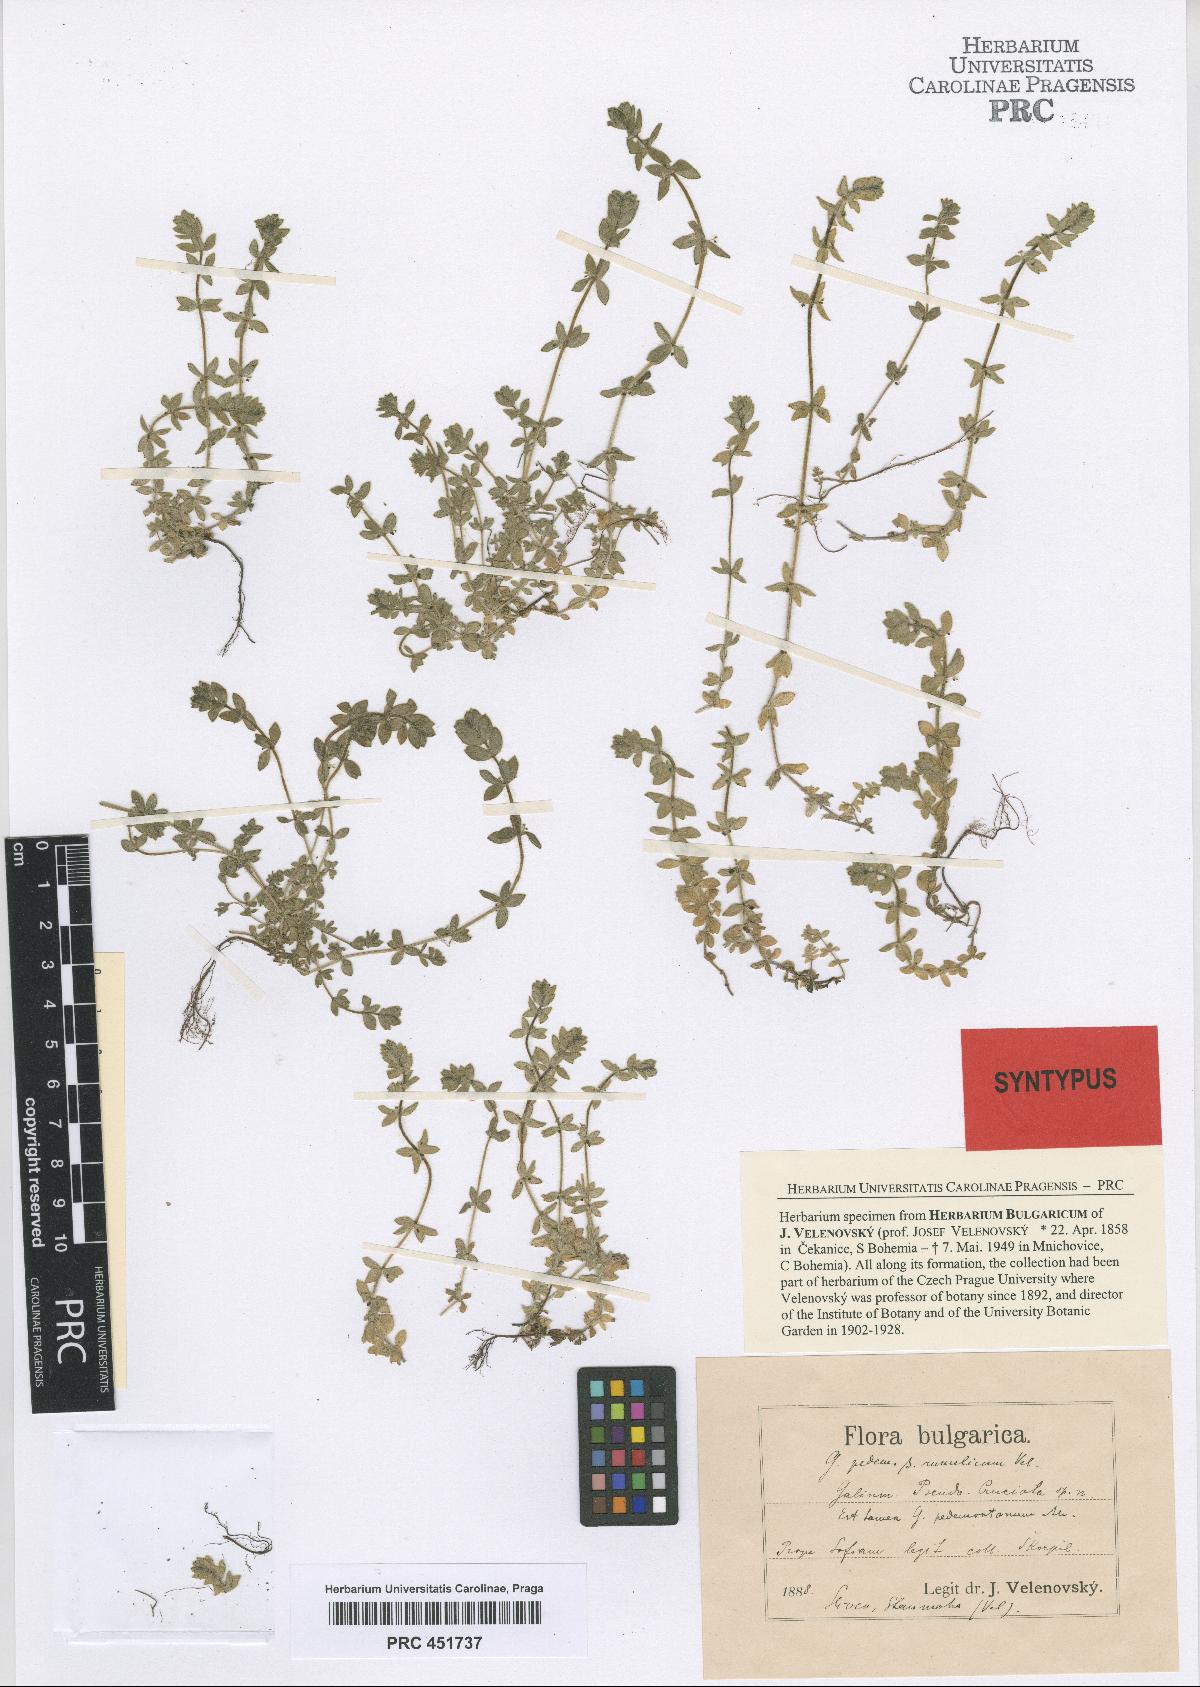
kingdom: Plantae
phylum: Tracheophyta
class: Magnoliopsida
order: Gentianales
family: Rubiaceae
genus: Cruciata
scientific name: Cruciata pedemontana
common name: Piedmont bedstraw
